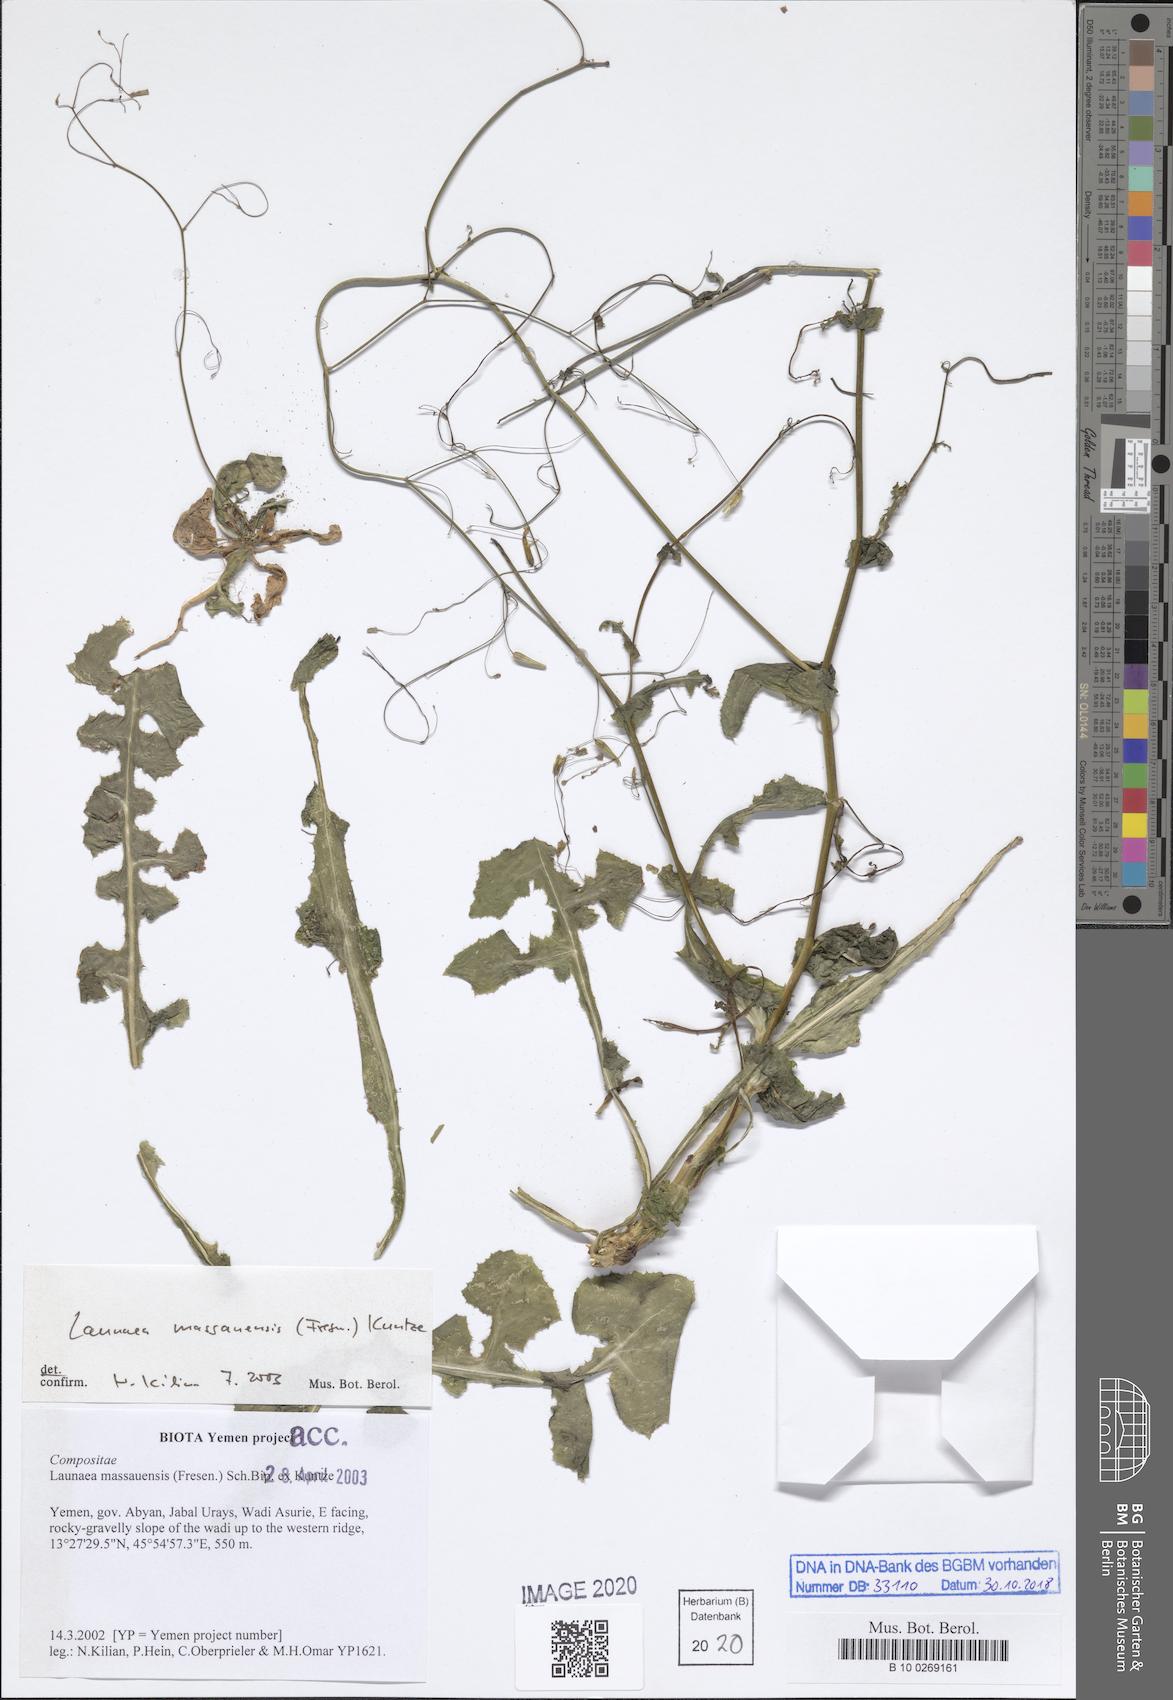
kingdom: Plantae
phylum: Tracheophyta
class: Magnoliopsida
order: Asterales
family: Asteraceae
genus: Launaea
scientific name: Launaea massauensis
